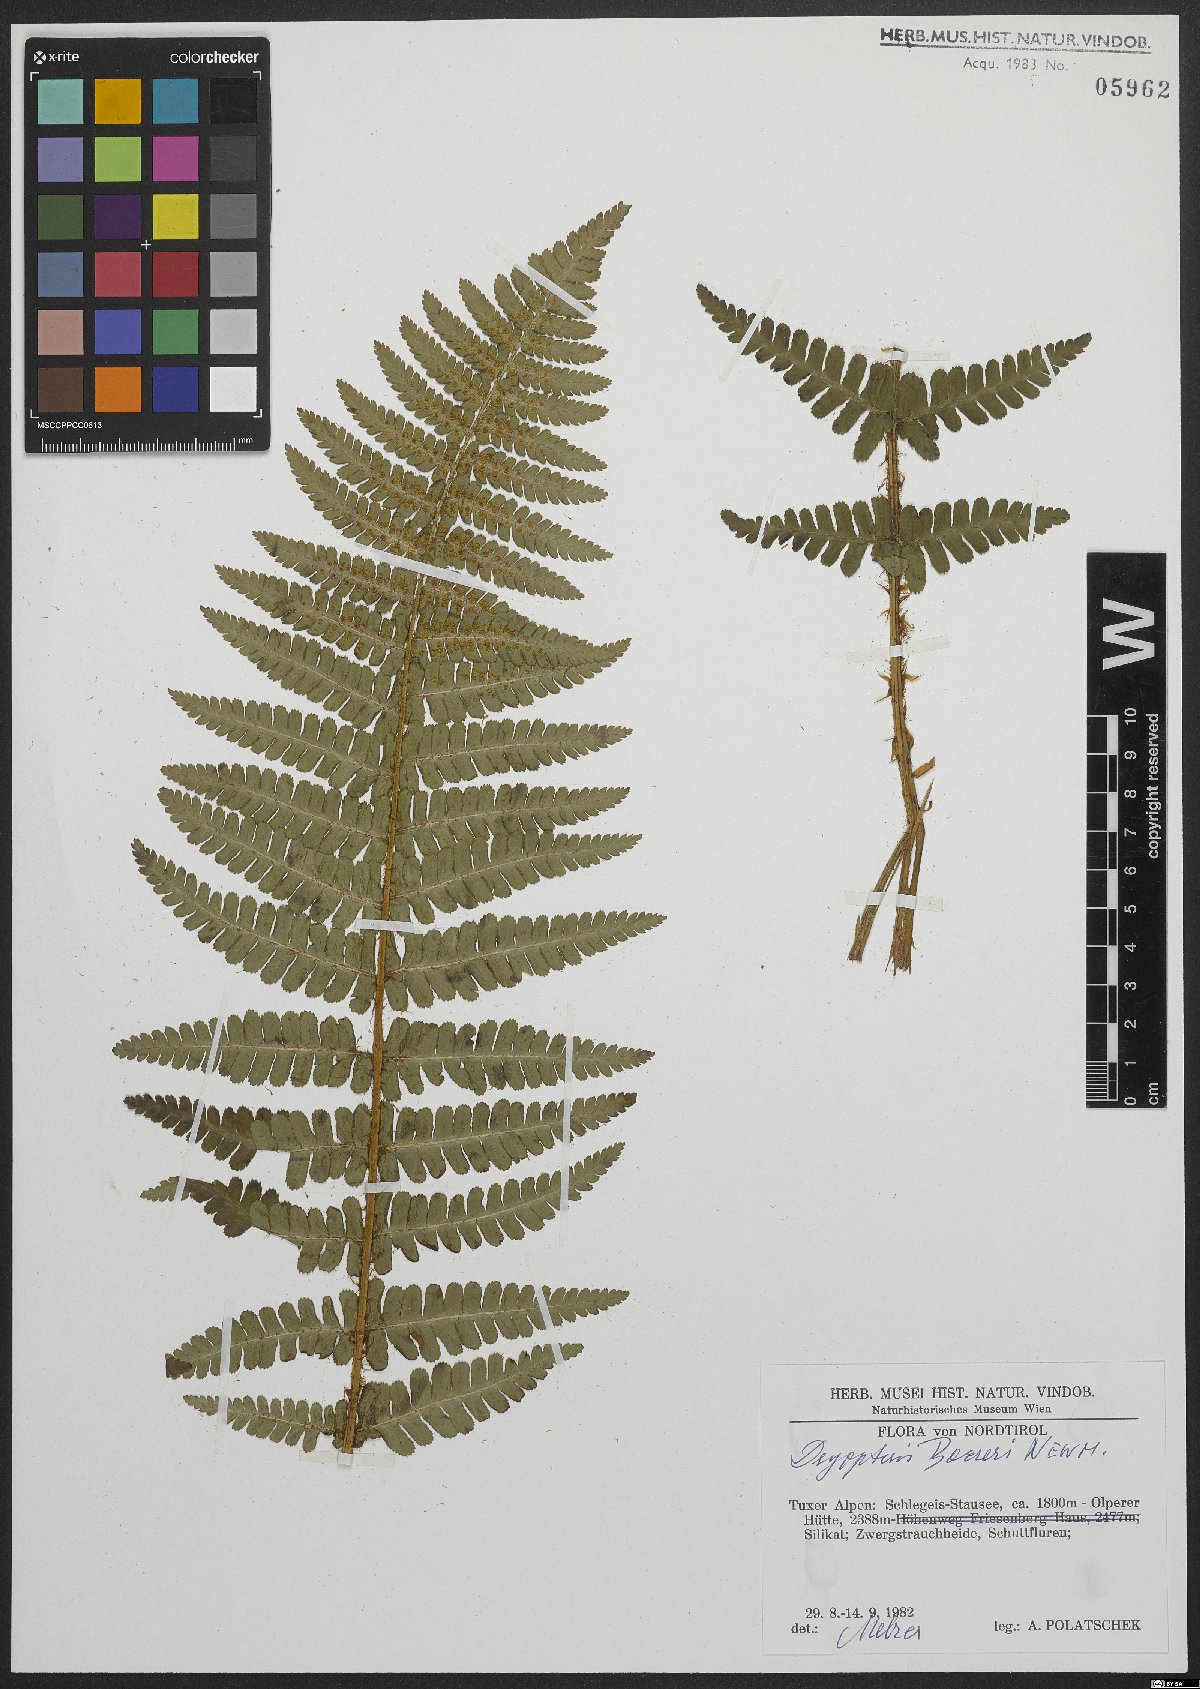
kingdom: Plantae
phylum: Tracheophyta
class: Polypodiopsida
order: Polypodiales
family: Dryopteridaceae
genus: Dryopteris
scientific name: Dryopteris cambrensis
